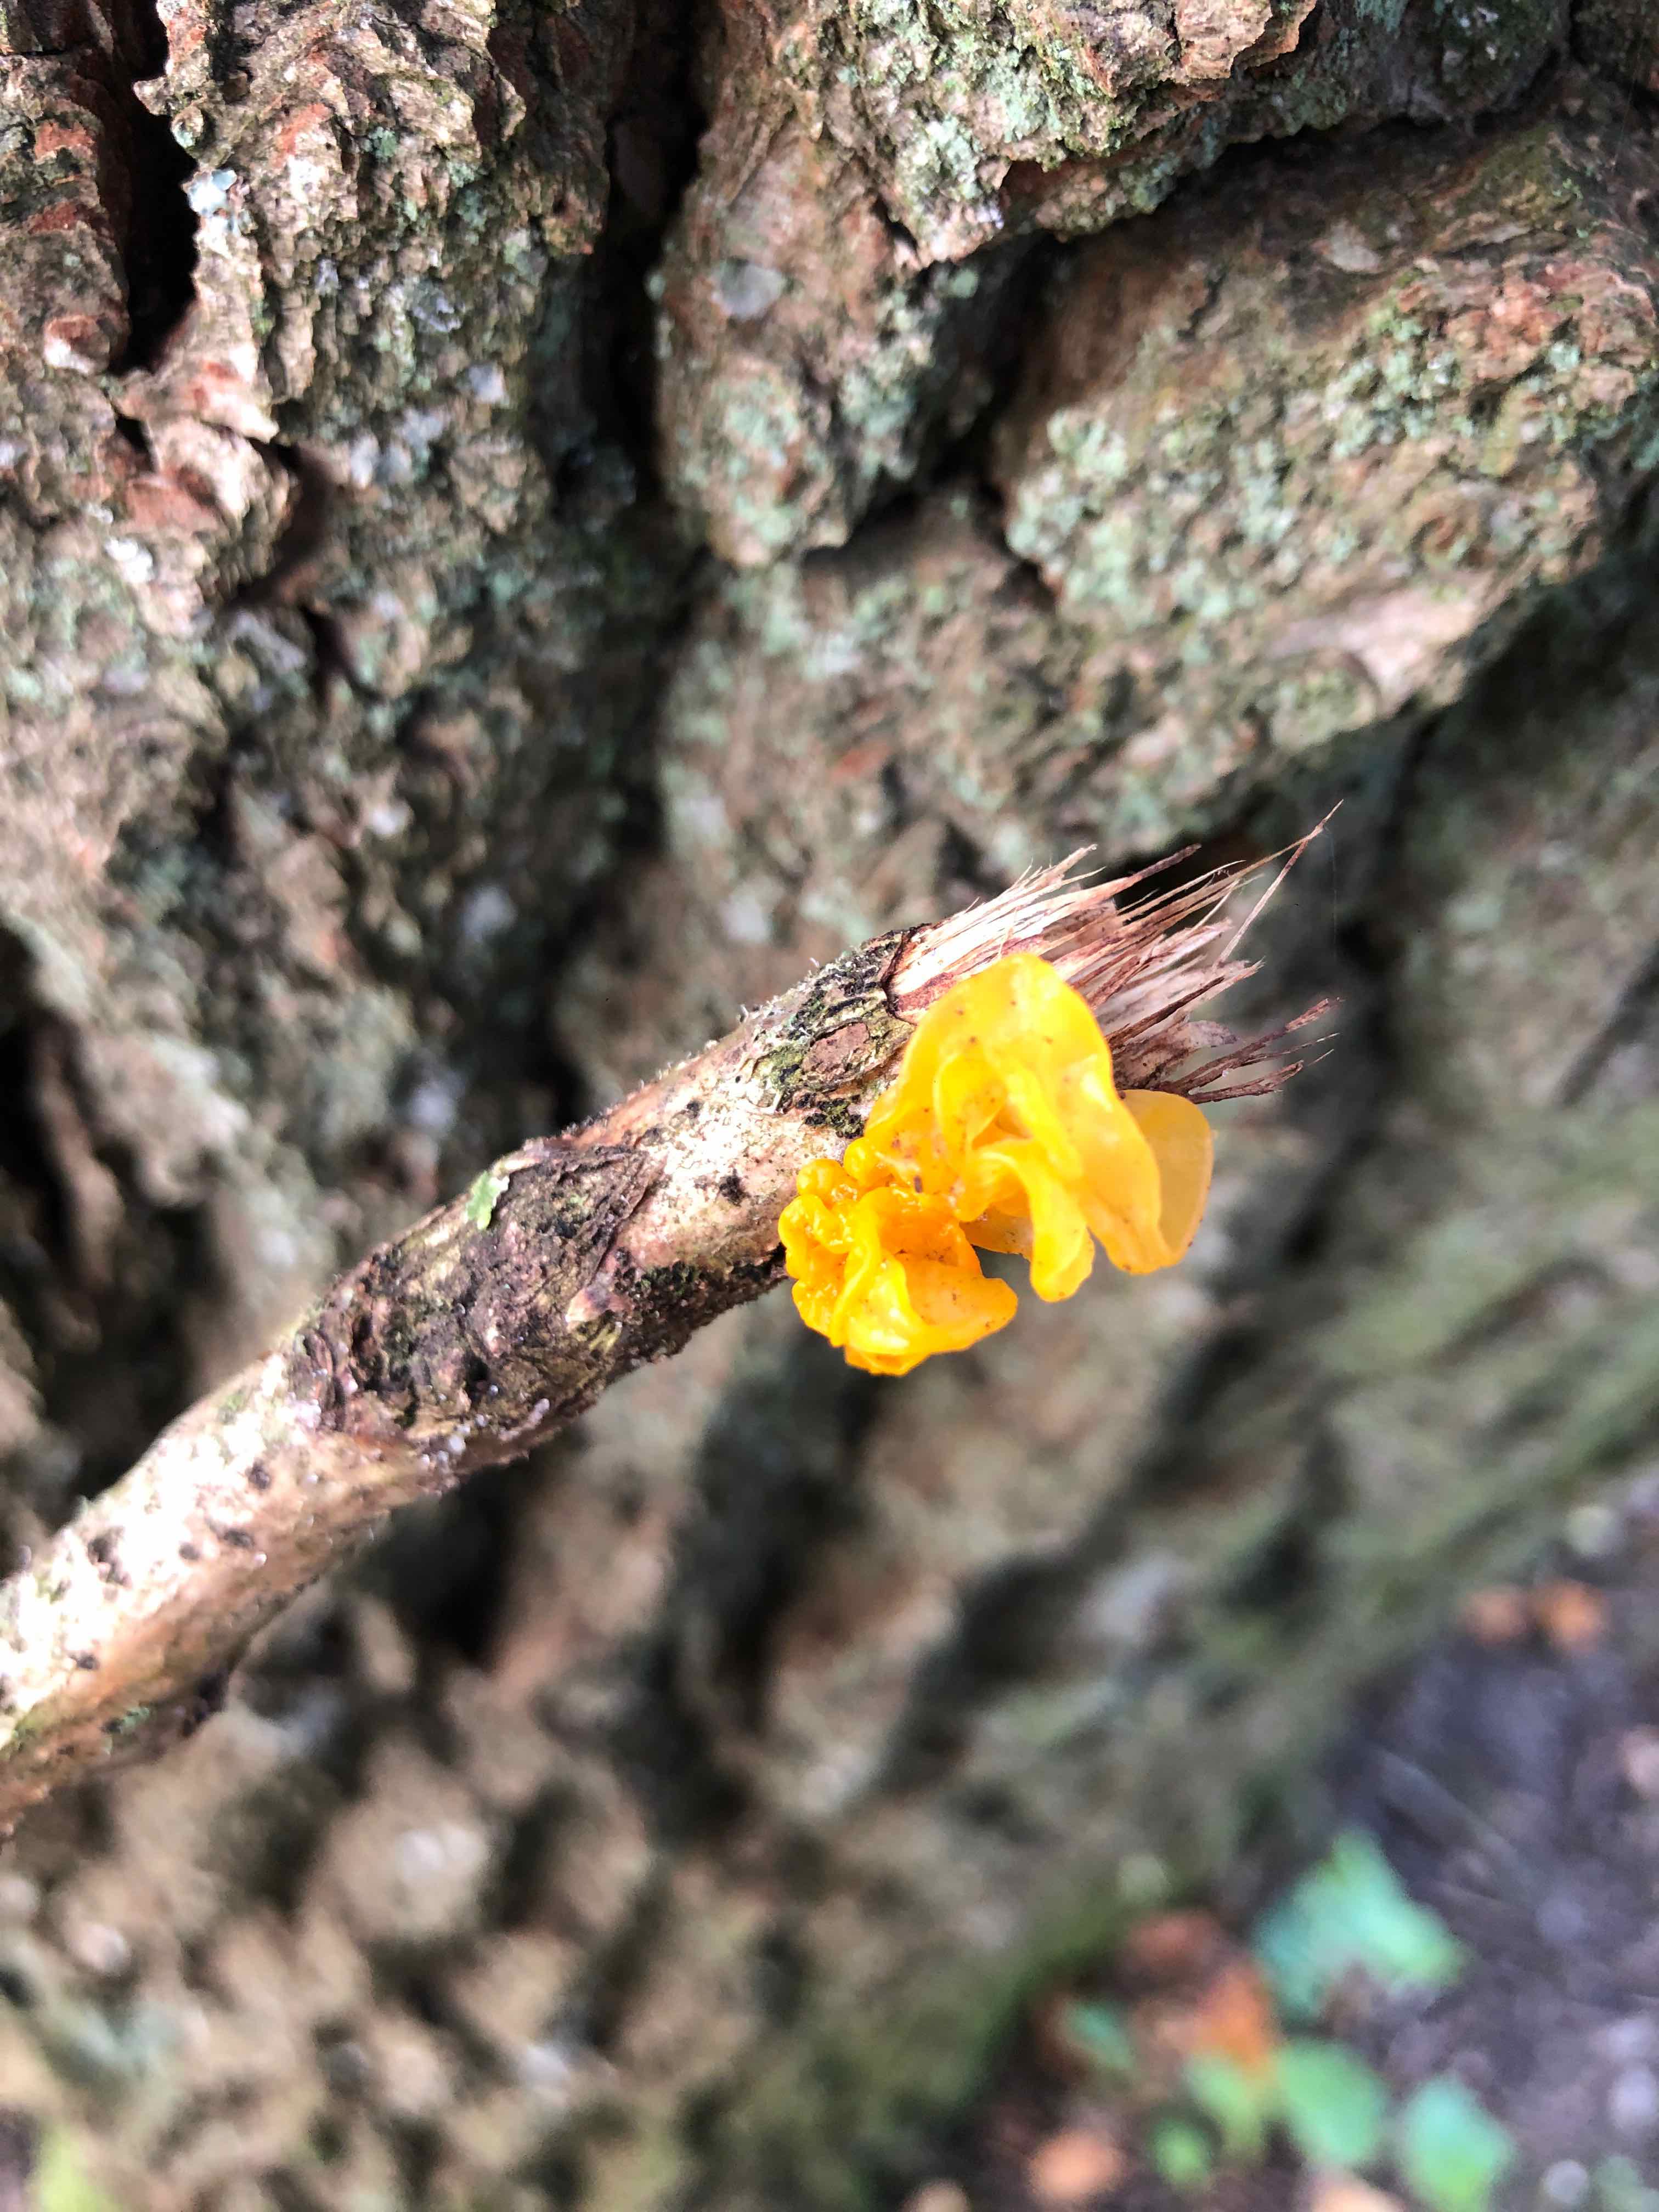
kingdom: Fungi
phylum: Basidiomycota
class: Tremellomycetes
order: Tremellales
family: Tremellaceae
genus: Tremella
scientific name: Tremella mesenterica
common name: gul bævresvamp
